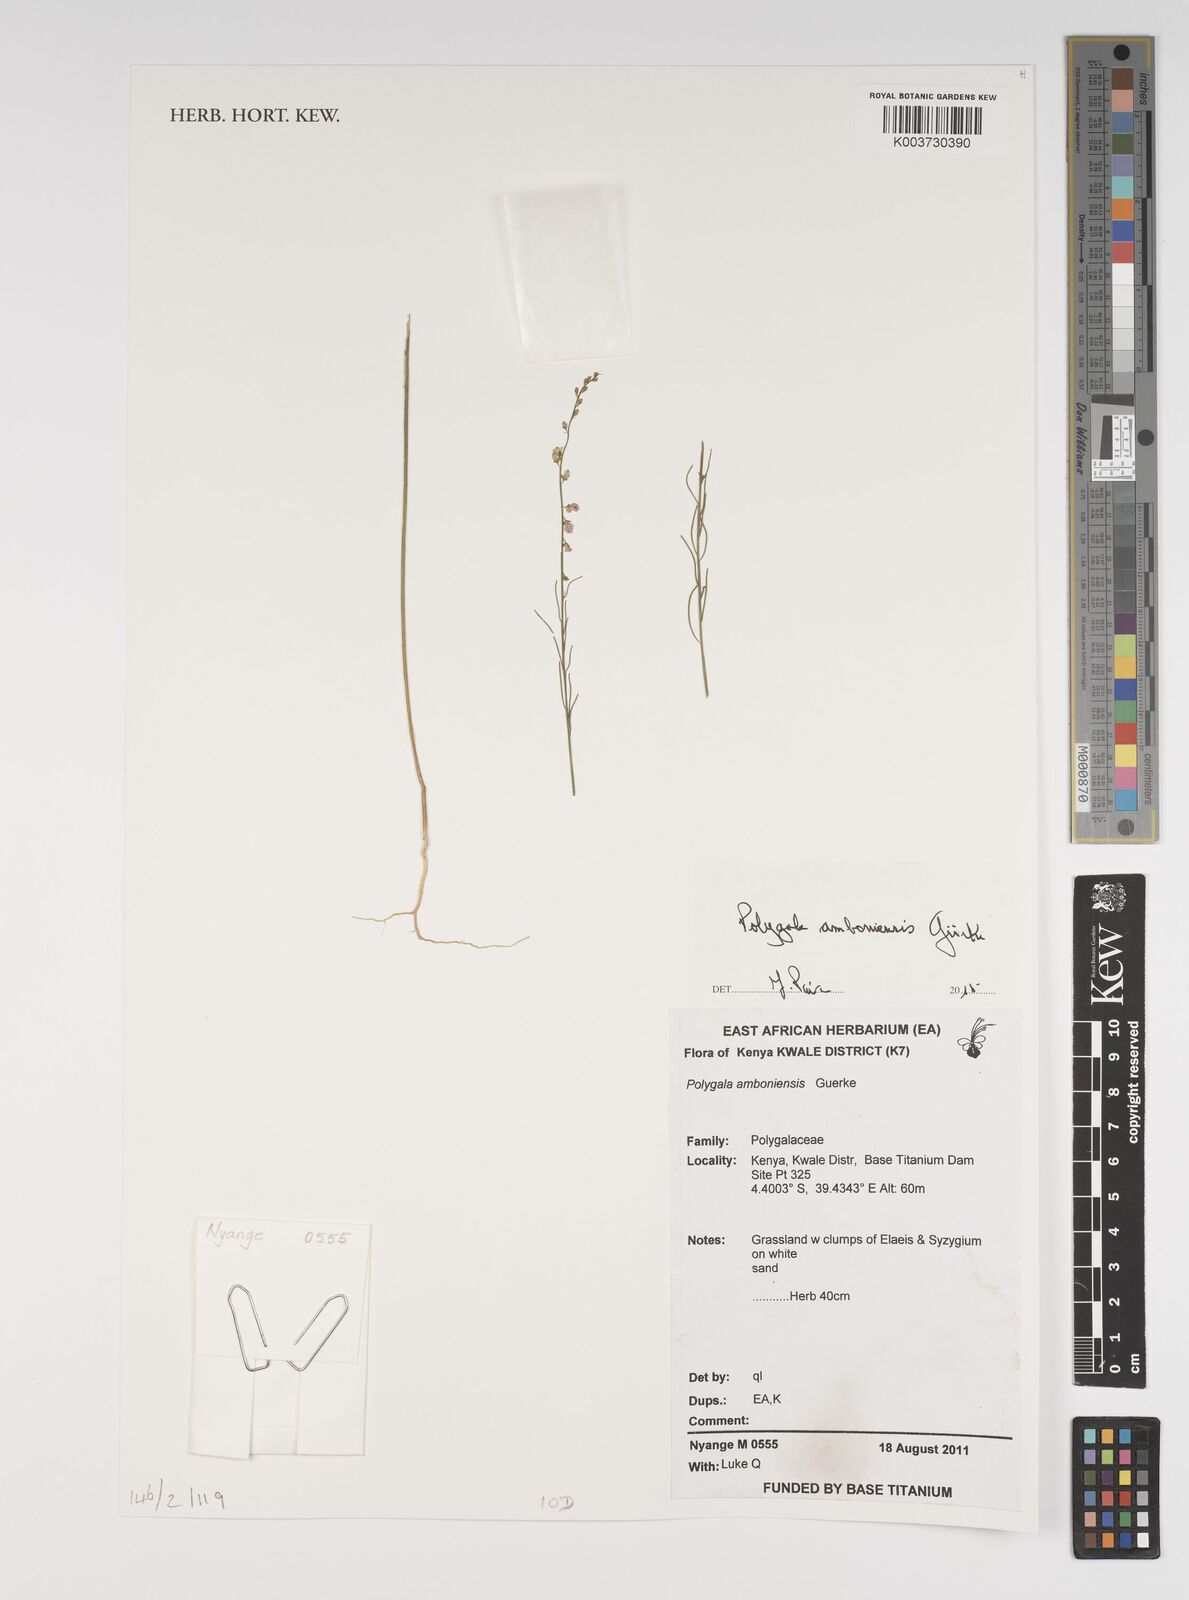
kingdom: Plantae
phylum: Tracheophyta
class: Magnoliopsida
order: Fabales
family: Polygalaceae
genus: Polygala
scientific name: Polygala amboniensis
